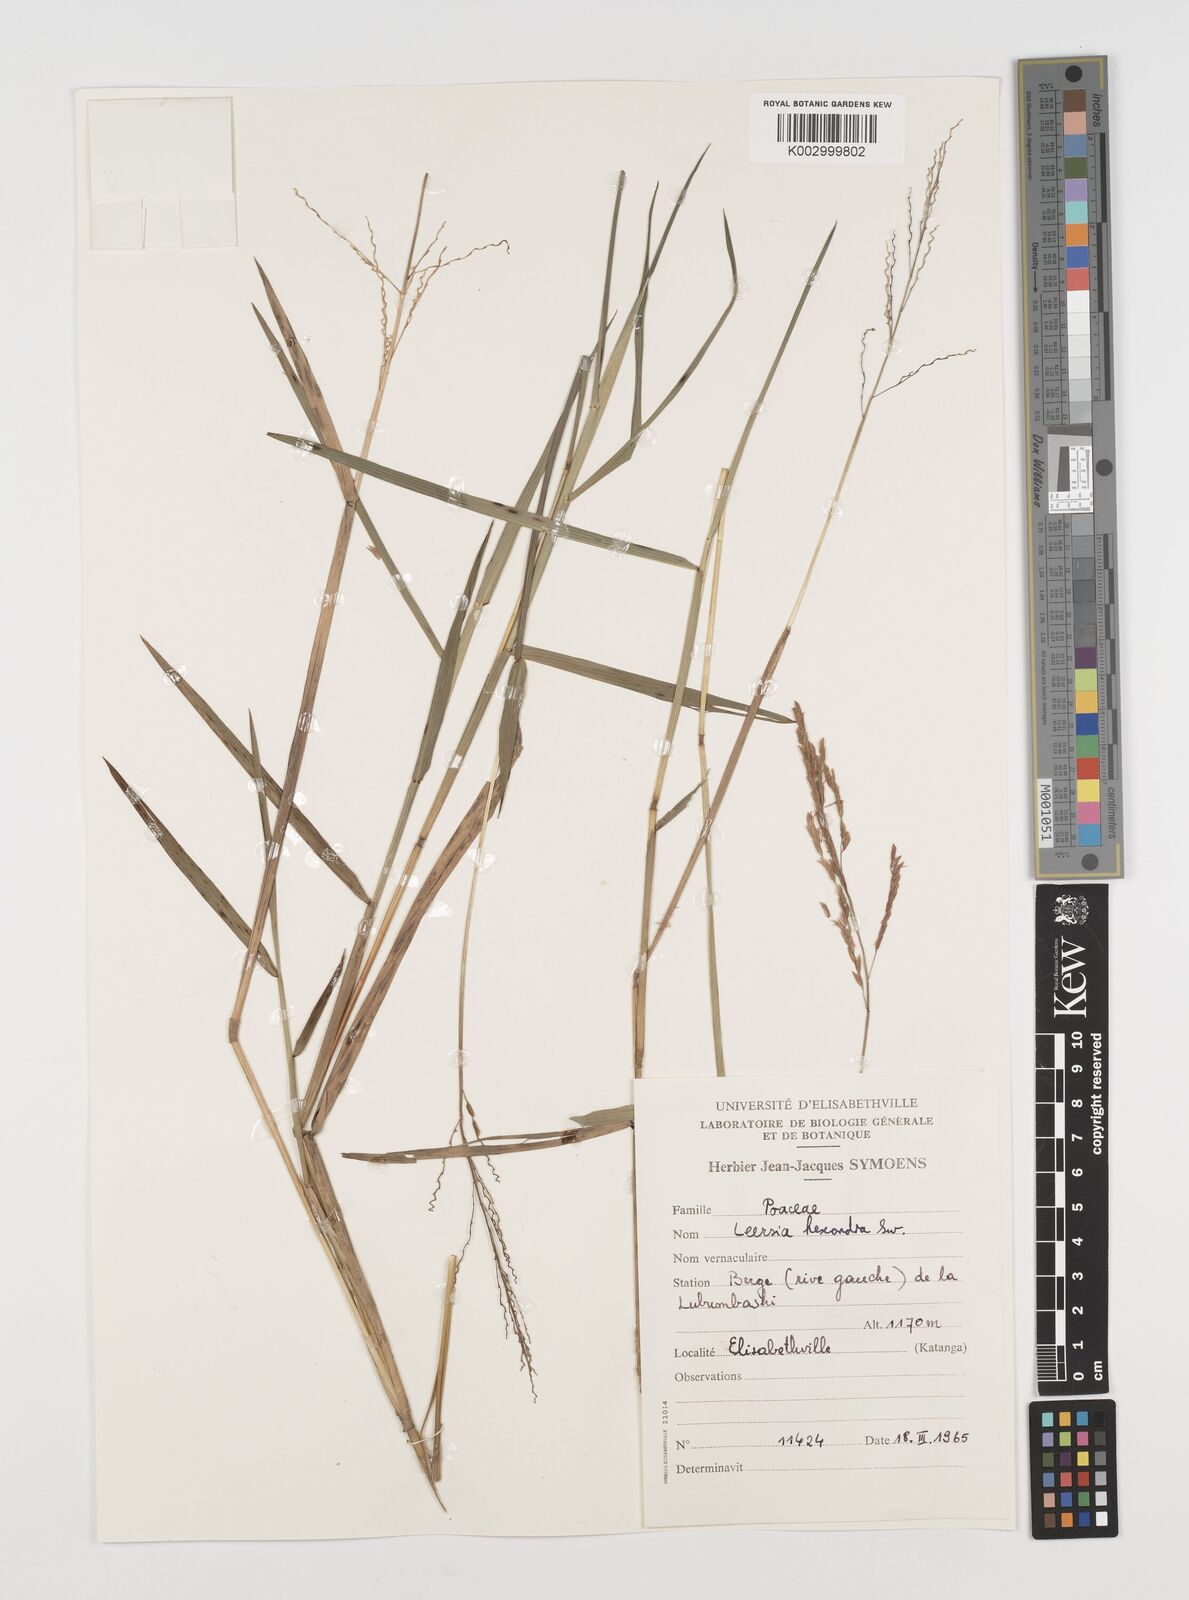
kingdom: Plantae
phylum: Tracheophyta
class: Liliopsida
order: Poales
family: Poaceae
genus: Leersia
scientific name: Leersia hexandra
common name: Southern cut grass
